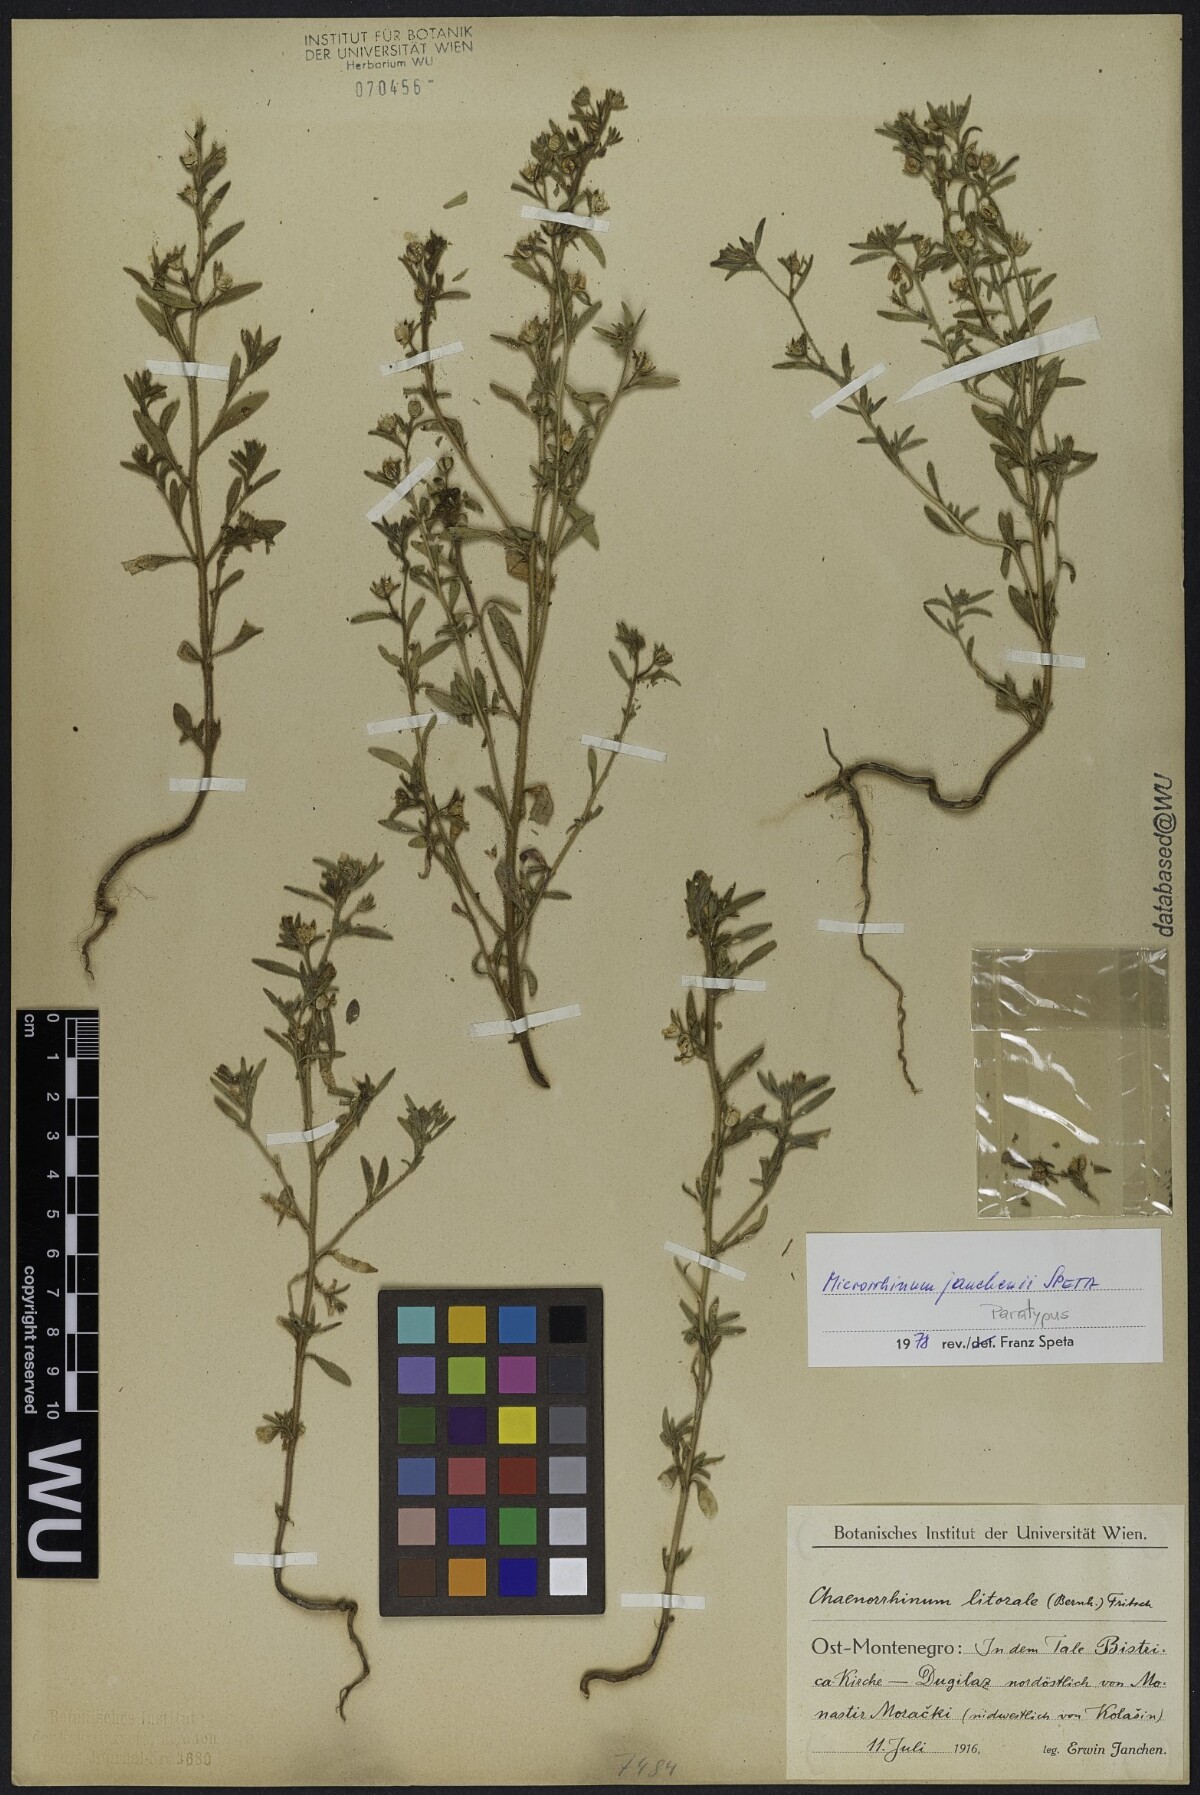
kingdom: Plantae
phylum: Tracheophyta
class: Magnoliopsida
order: Lamiales
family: Plantaginaceae
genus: Chaenorhinum
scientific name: Chaenorhinum litorale
